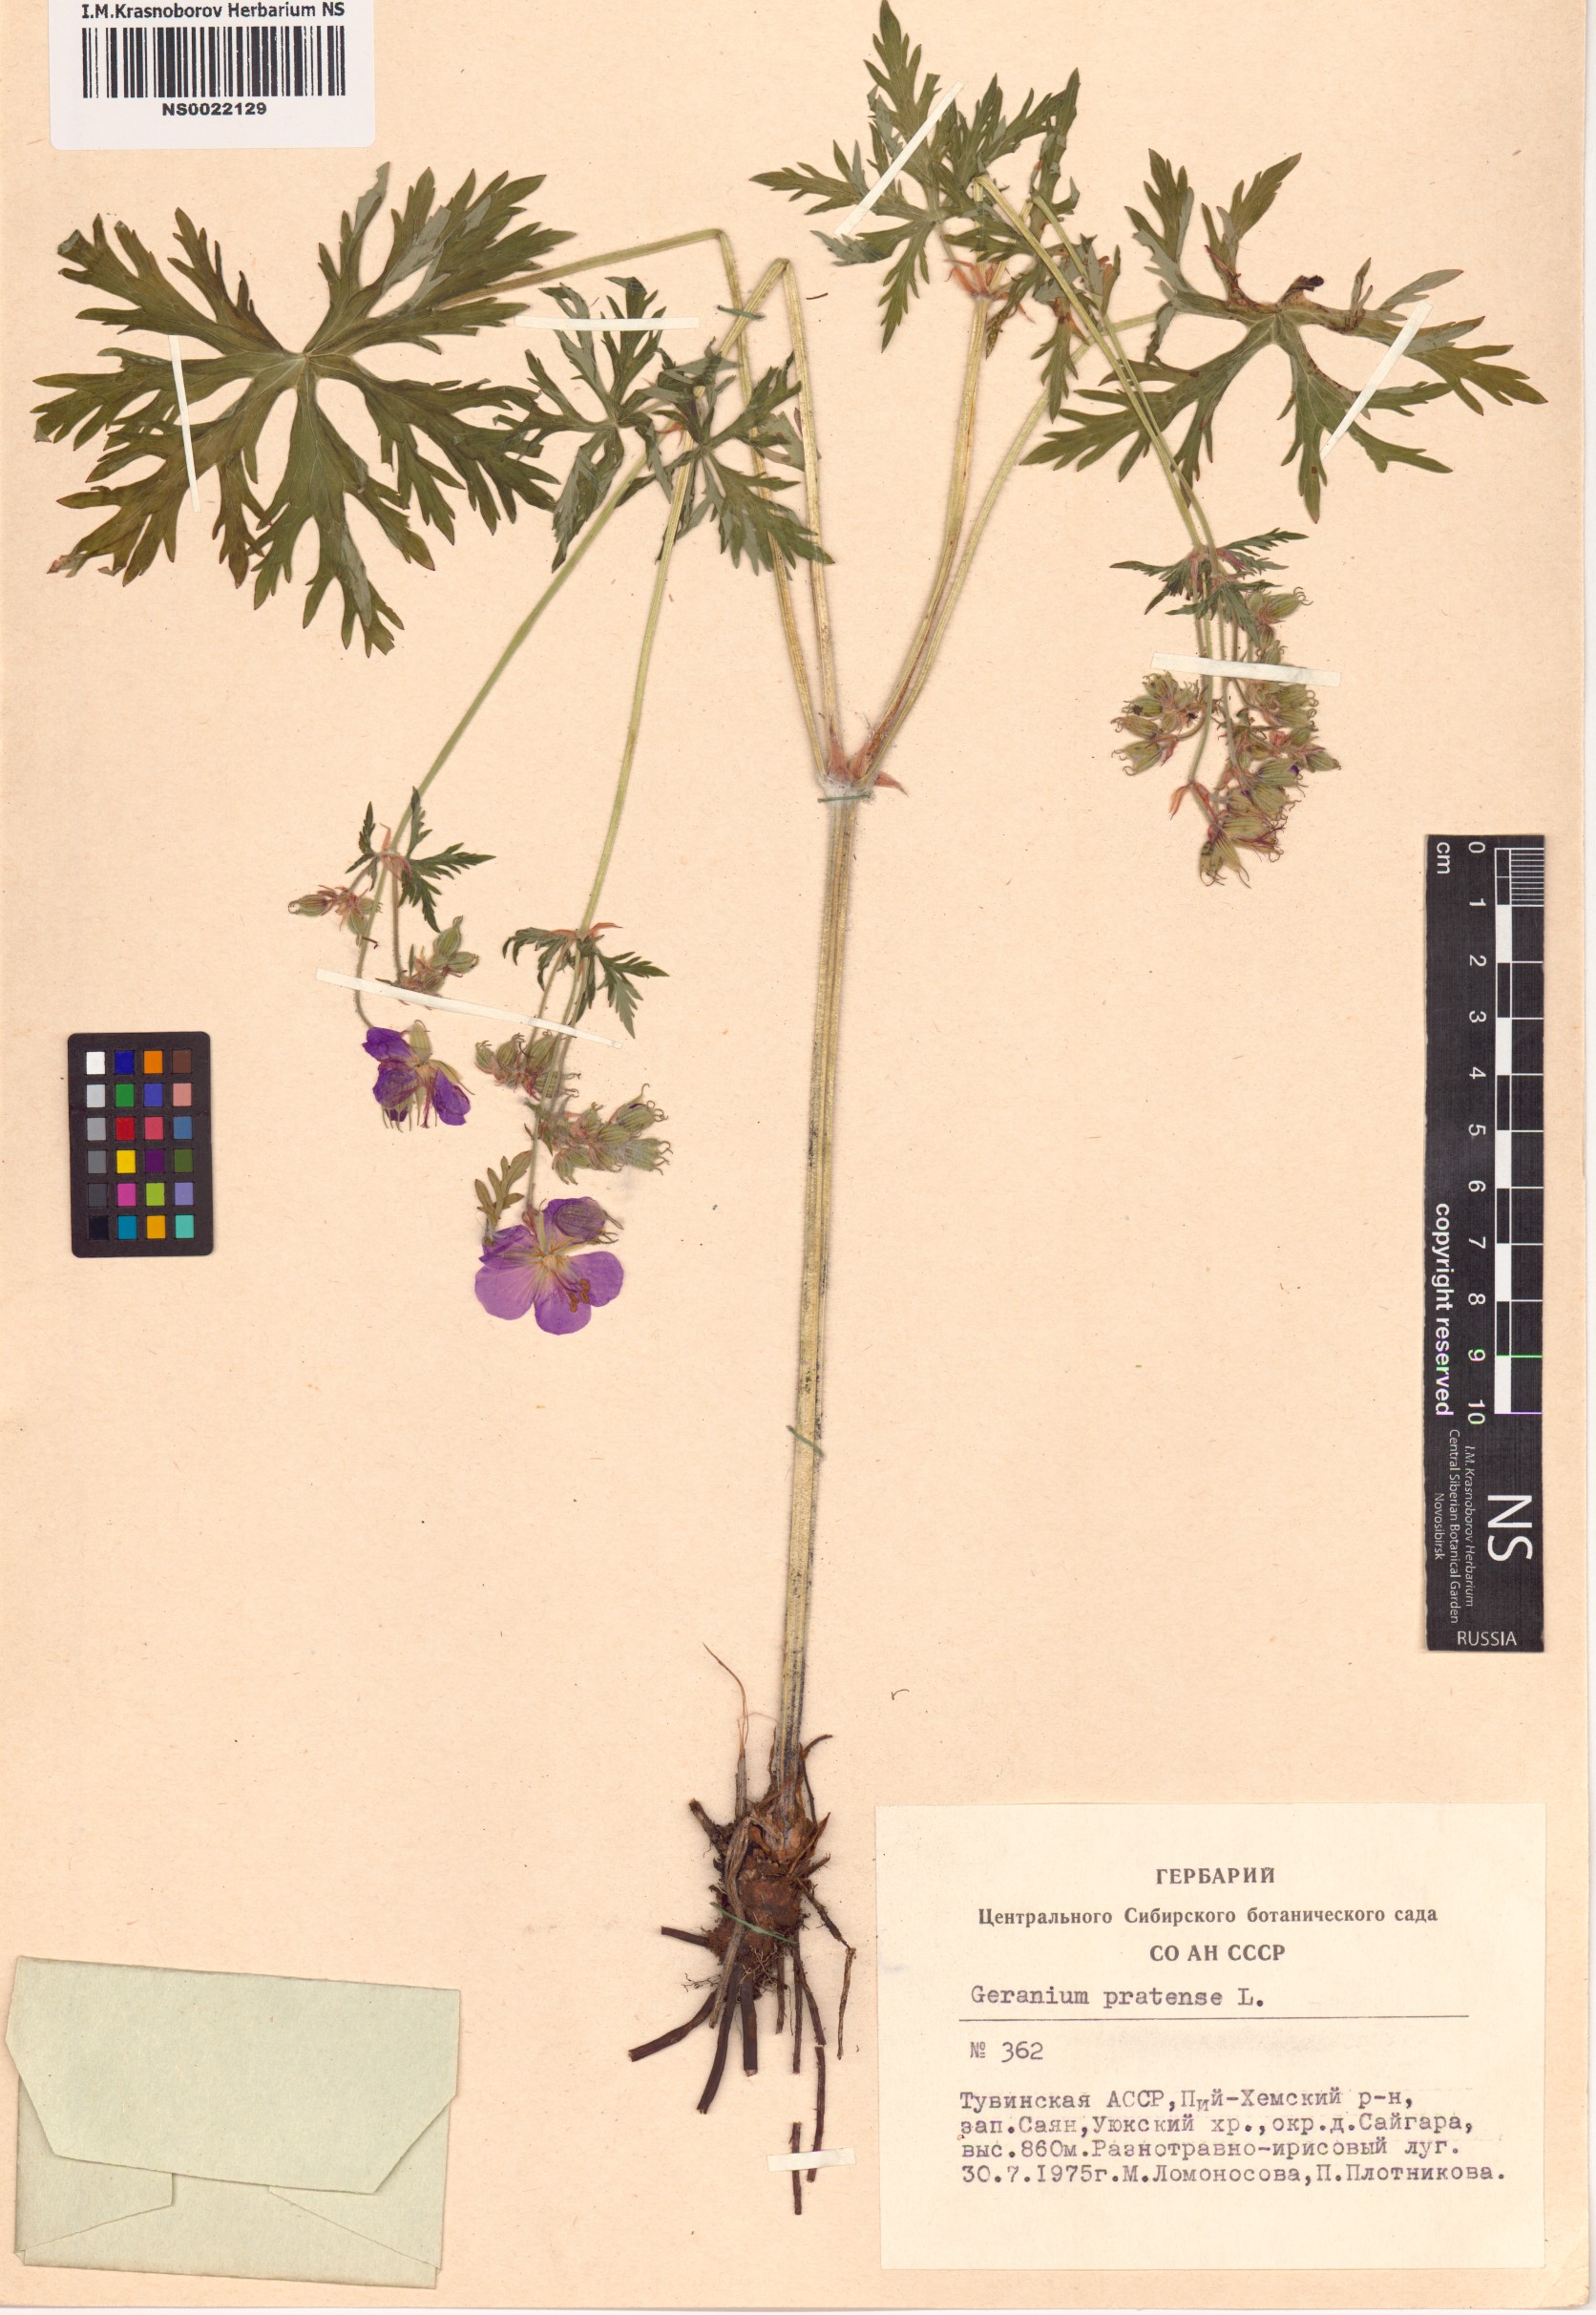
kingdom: Plantae
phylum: Tracheophyta
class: Magnoliopsida
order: Geraniales
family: Geraniaceae
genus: Geranium
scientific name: Geranium pratense
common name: Meadow crane's-bill
